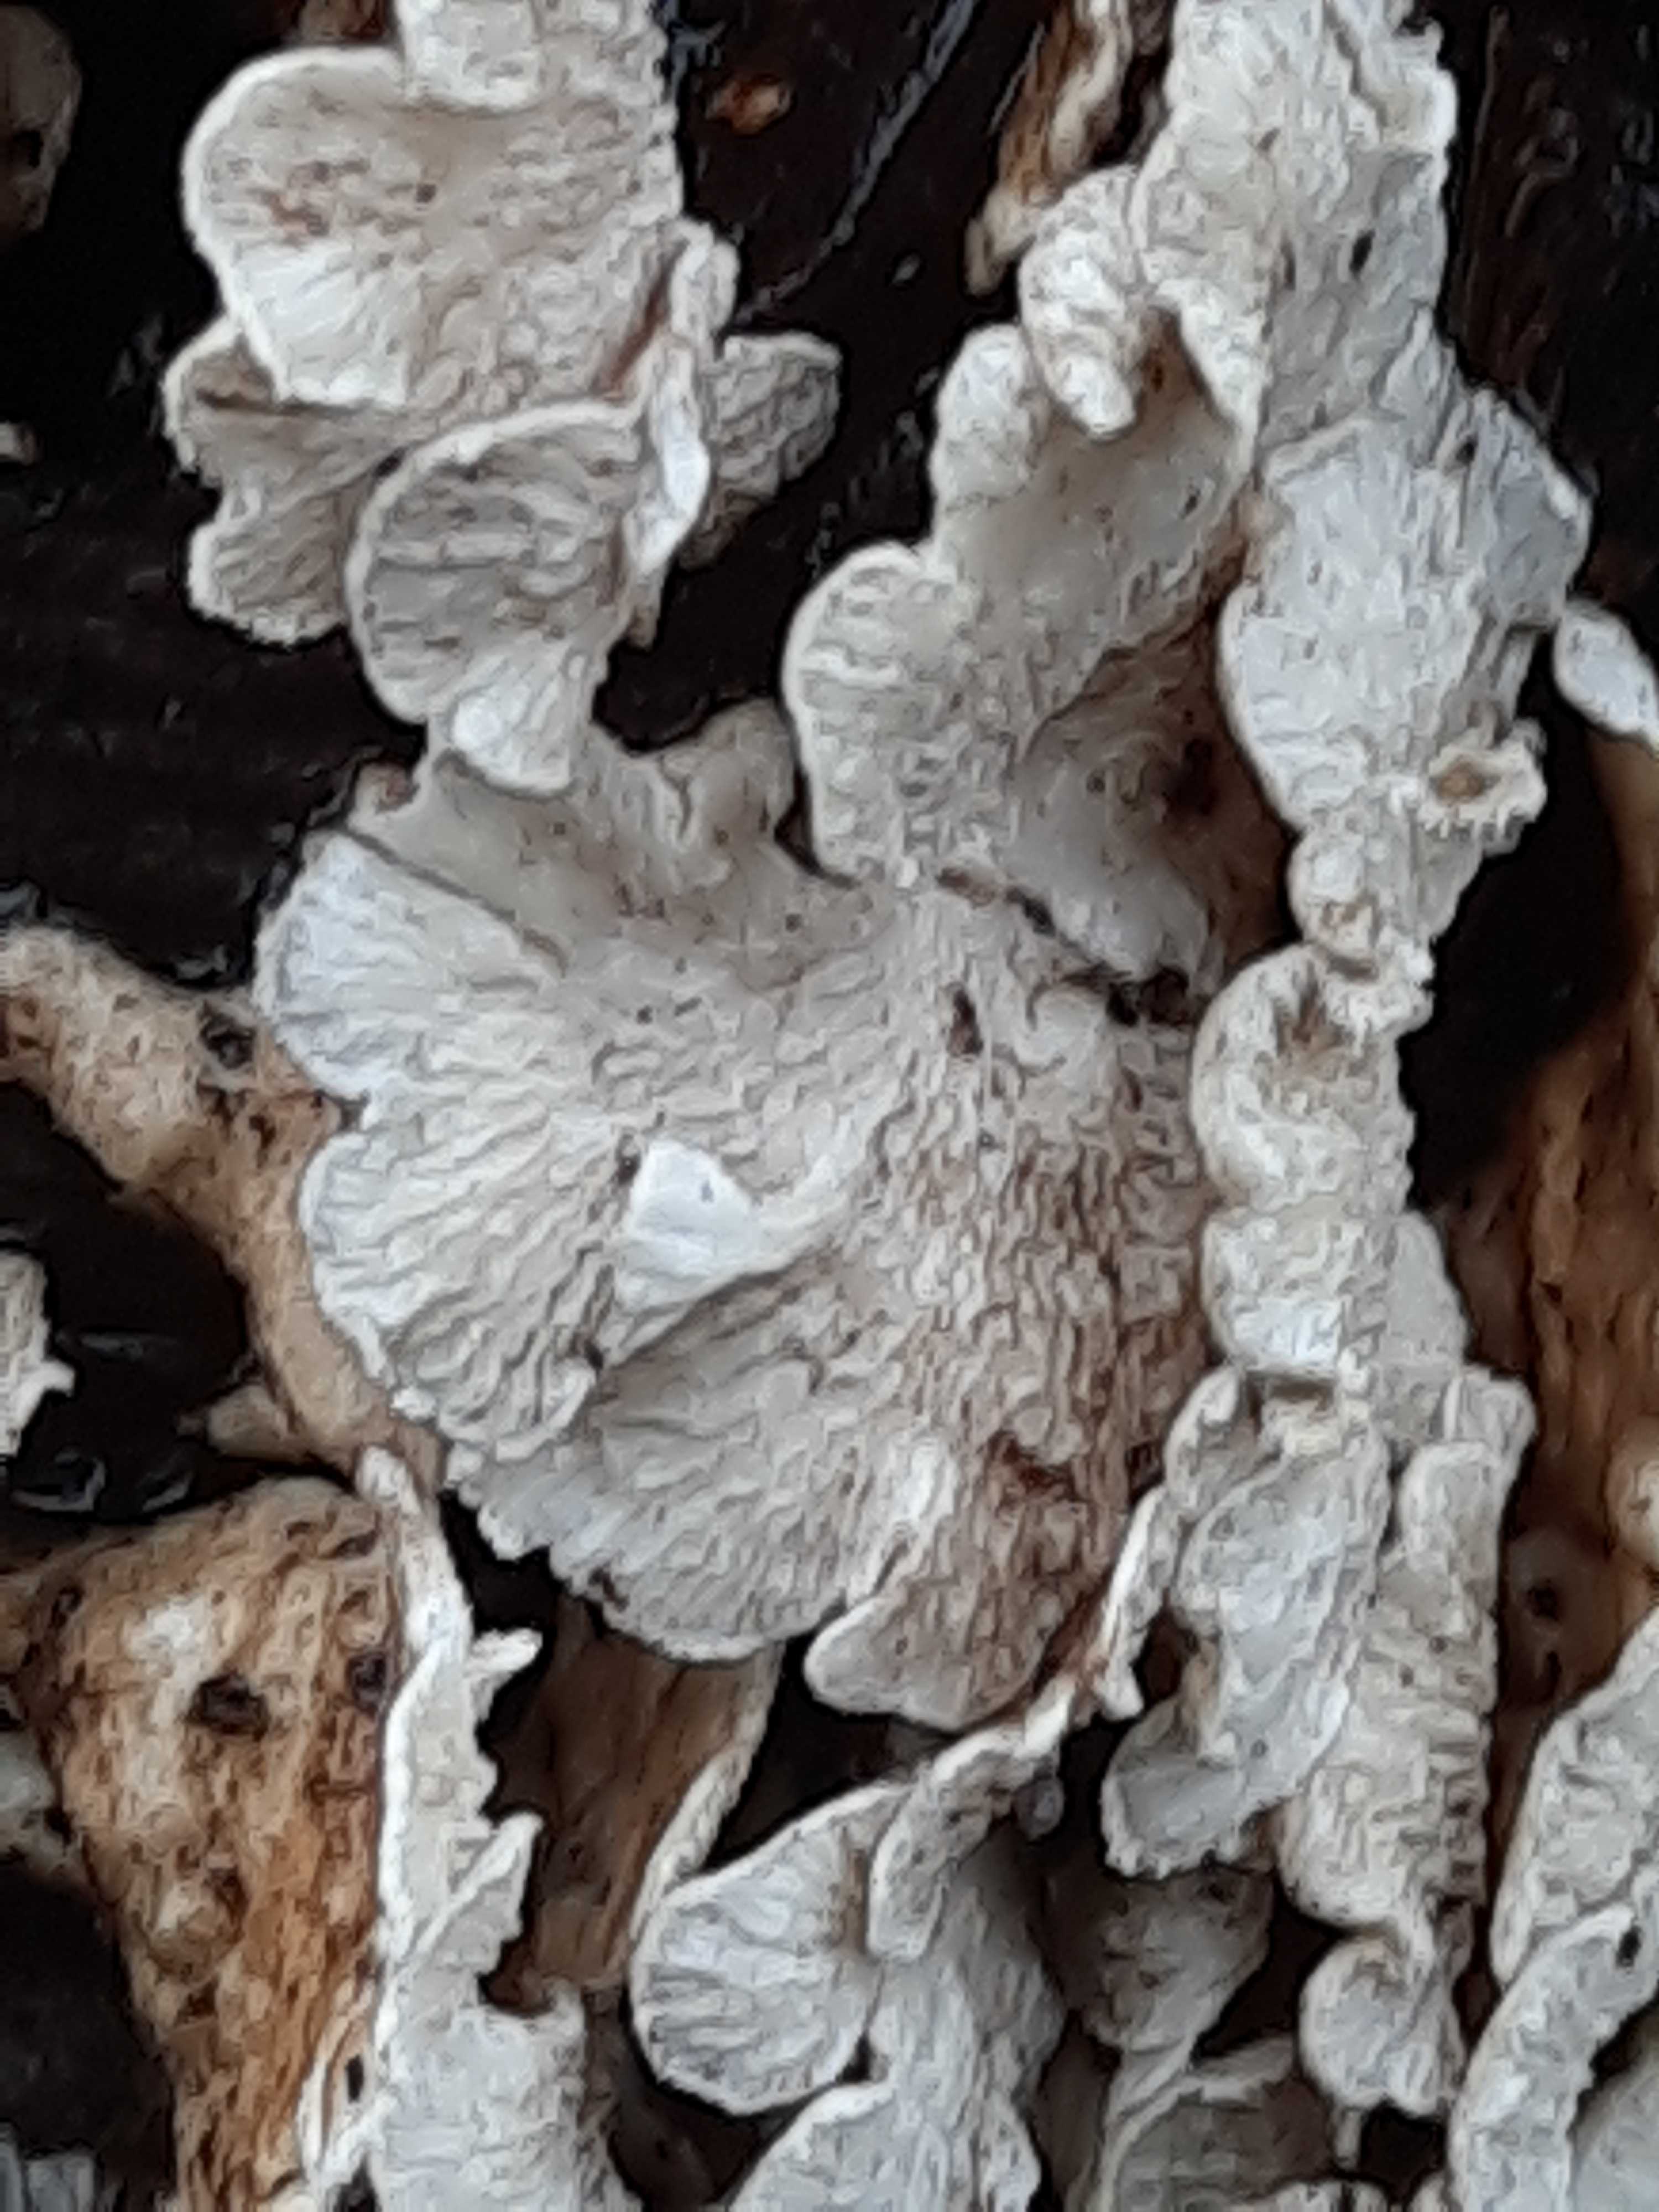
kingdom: Fungi
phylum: Basidiomycota
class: Agaricomycetes
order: Amylocorticiales
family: Amylocorticiaceae
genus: Plicaturopsis
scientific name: Plicaturopsis crispa
